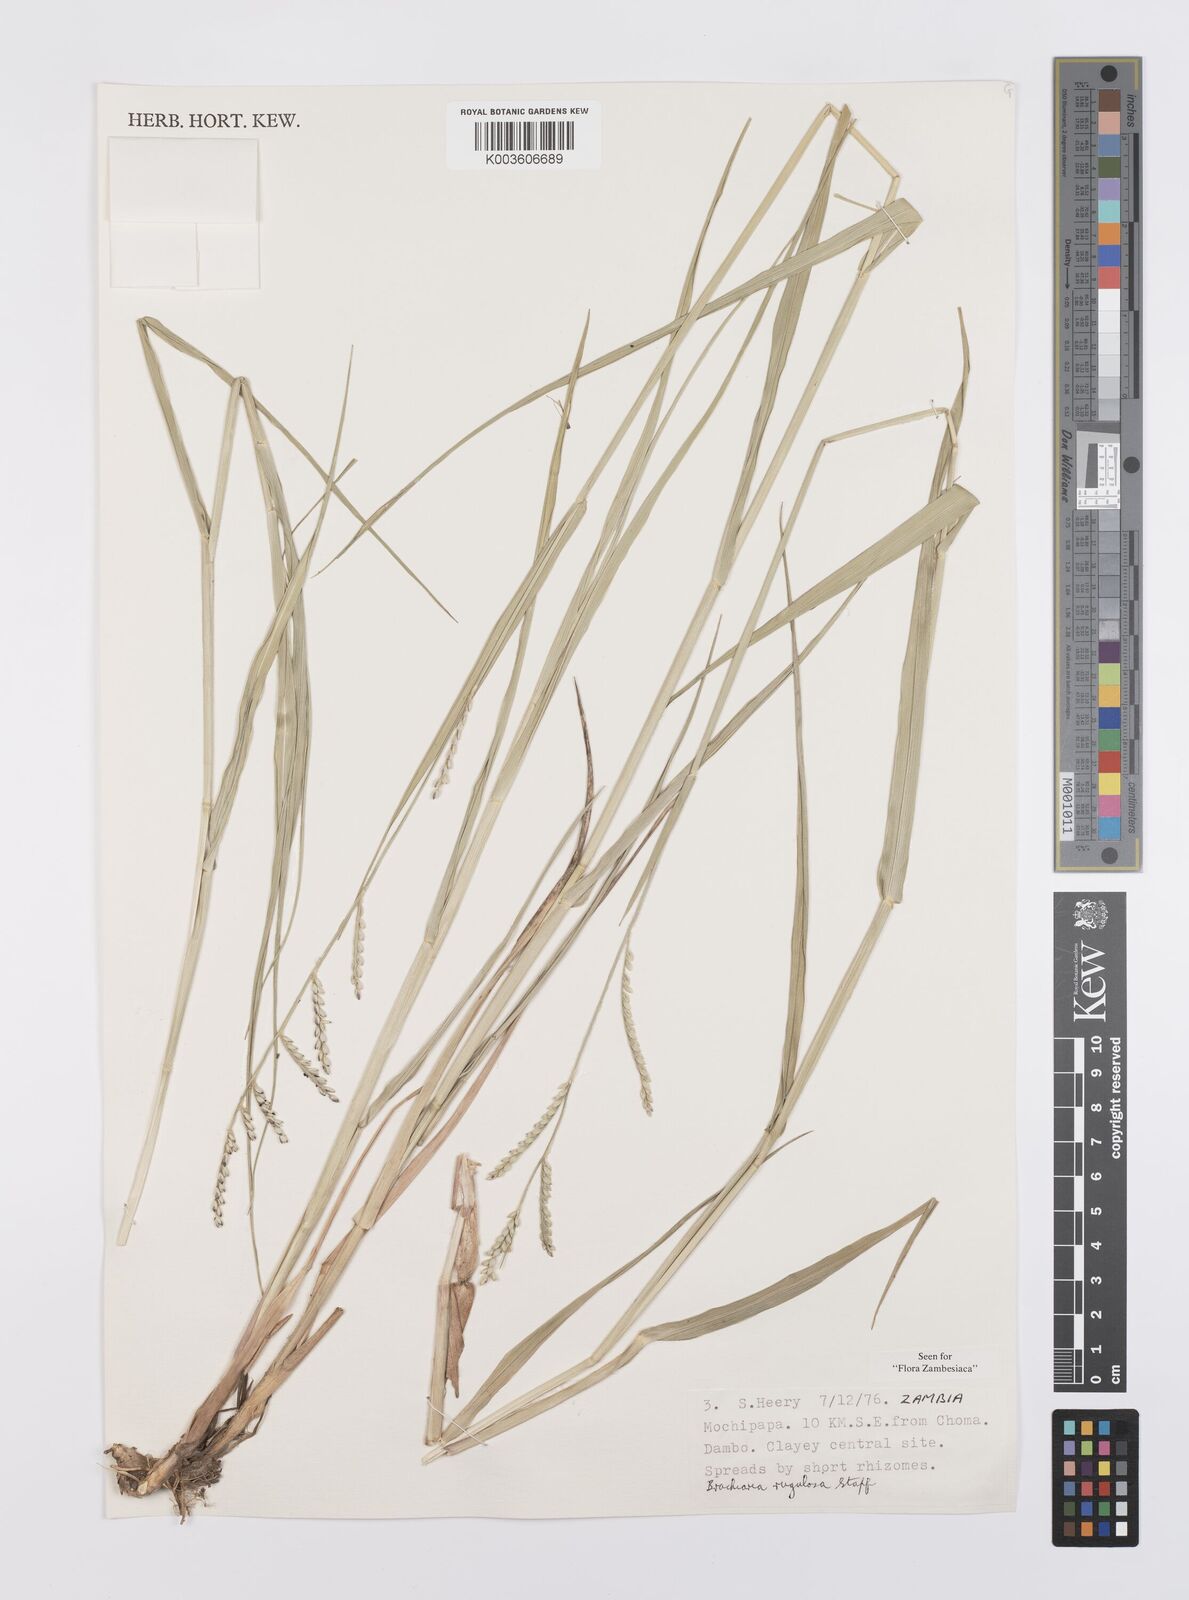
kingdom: Plantae
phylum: Tracheophyta
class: Liliopsida
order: Poales
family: Poaceae
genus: Urochloa
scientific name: Urochloa rugulosa
